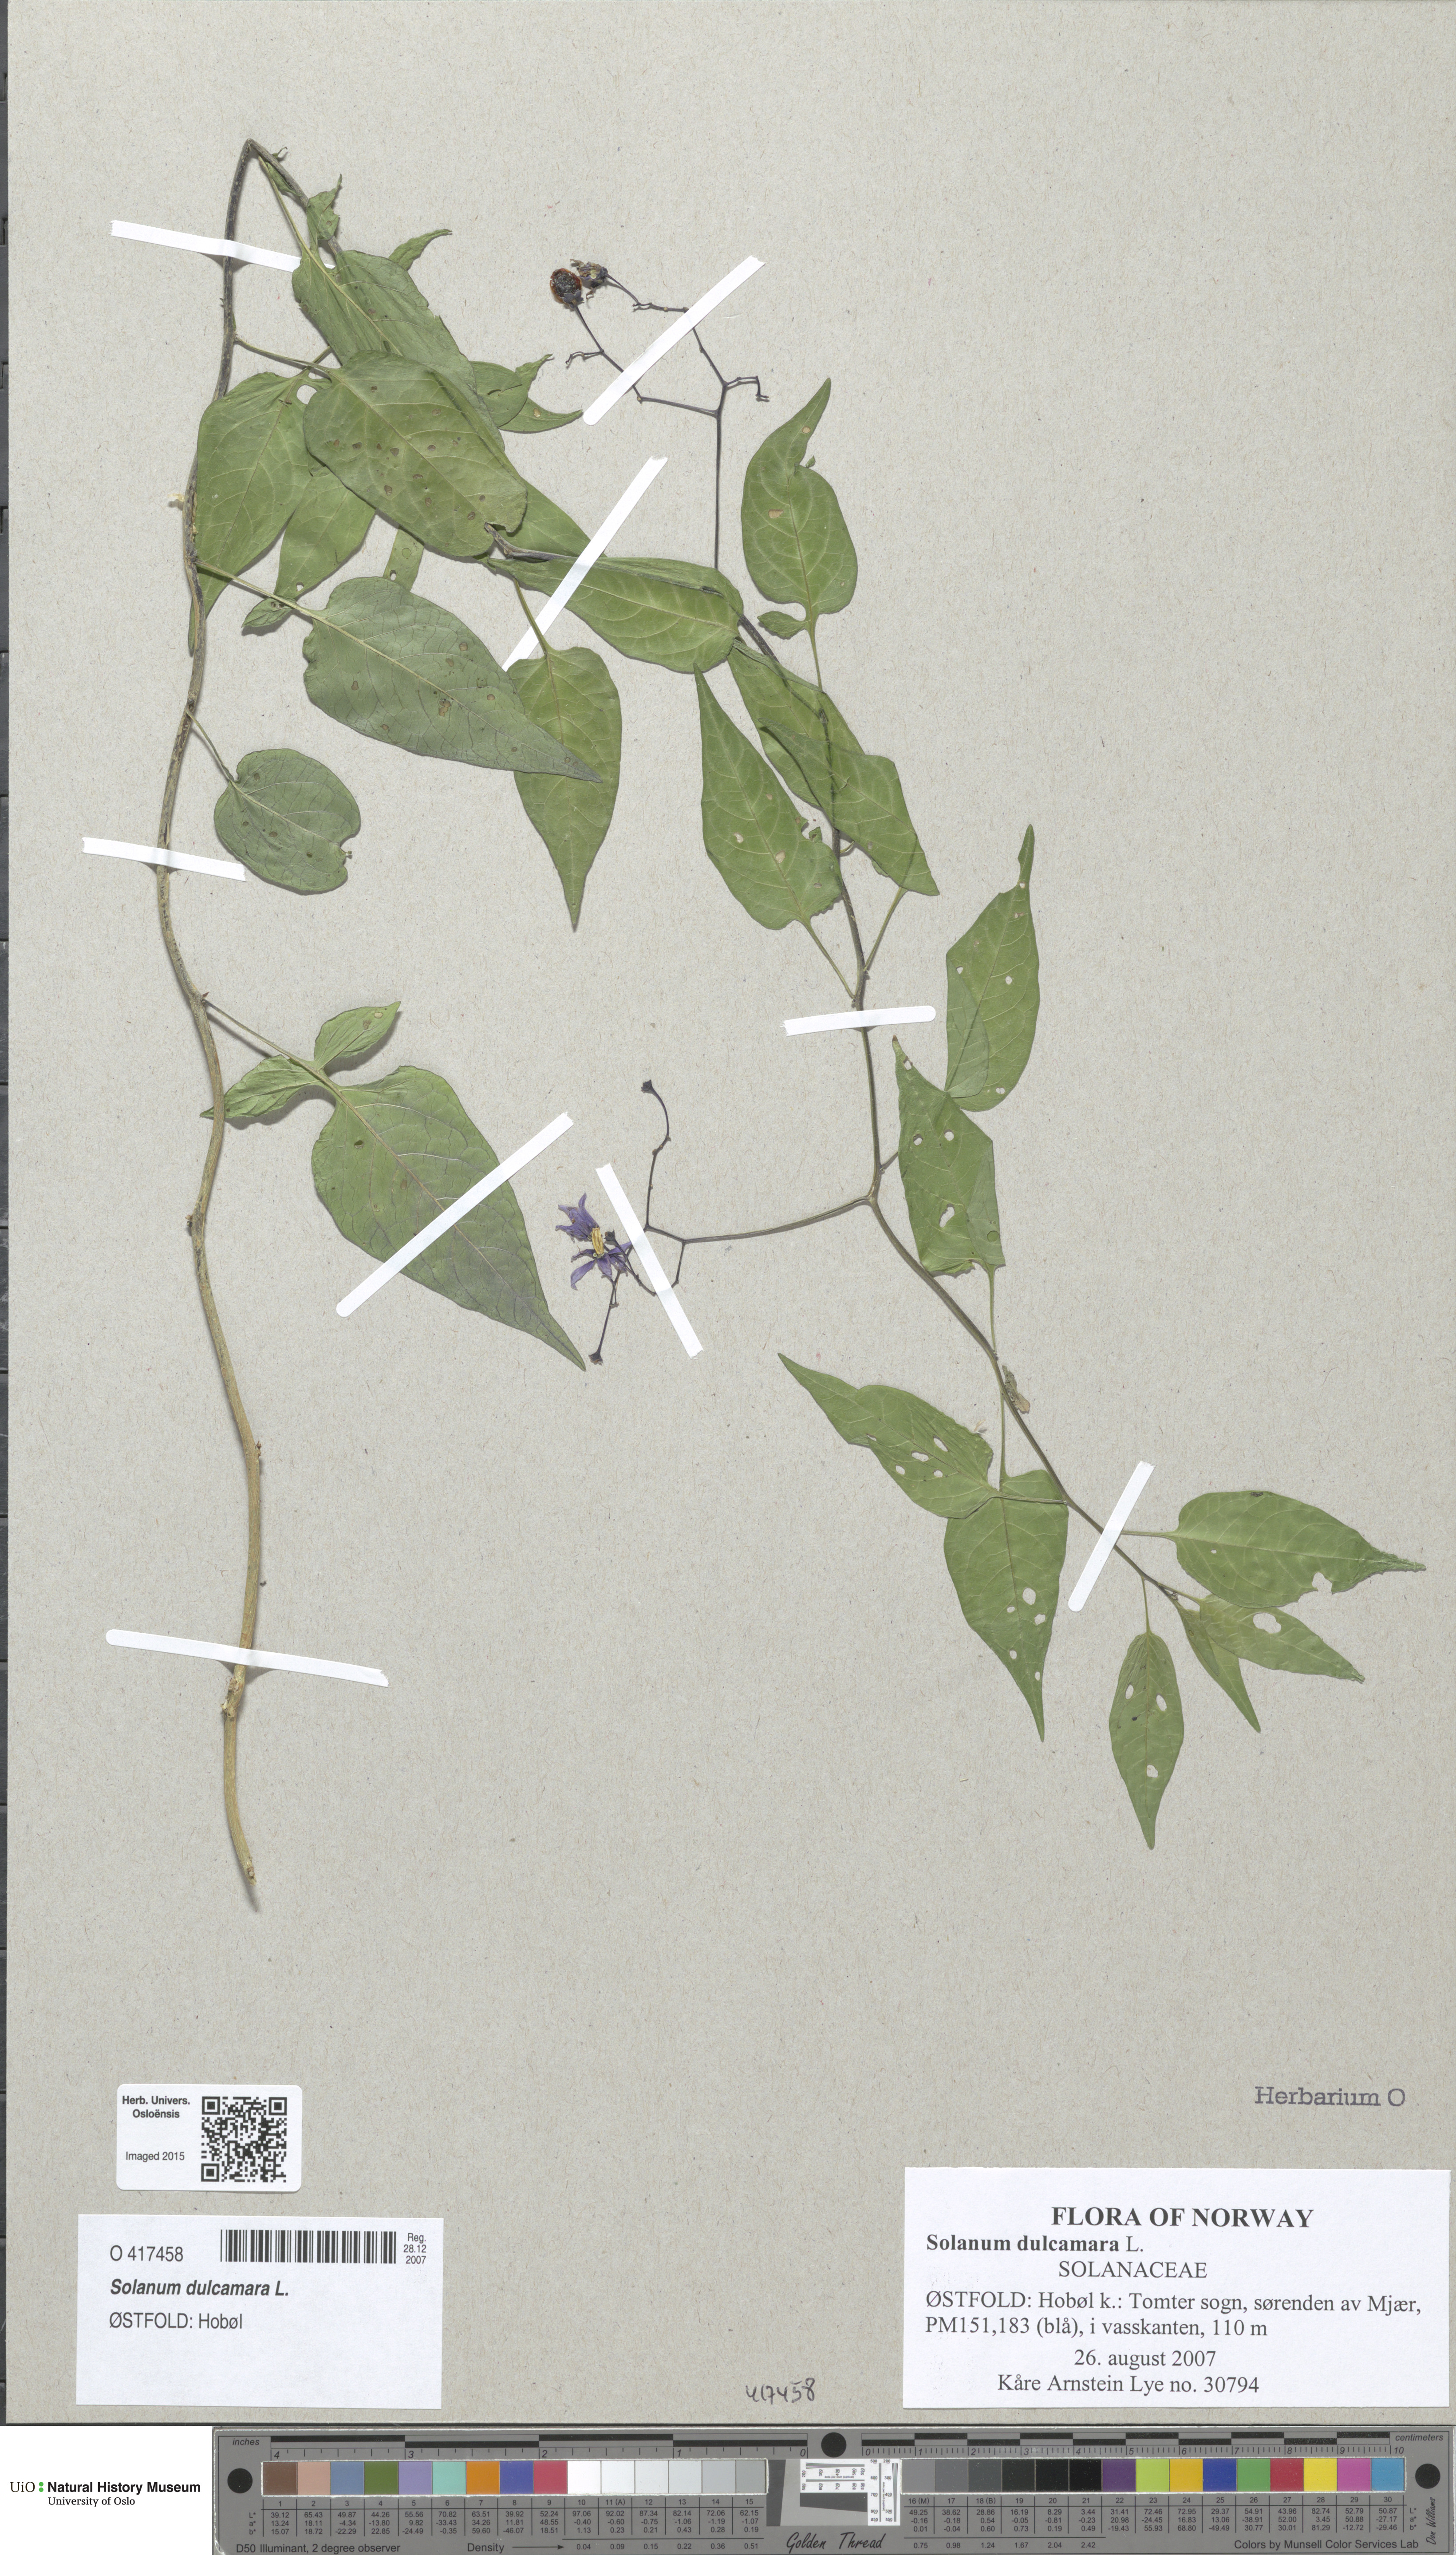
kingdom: Plantae
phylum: Tracheophyta
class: Magnoliopsida
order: Solanales
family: Solanaceae
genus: Solanum
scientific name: Solanum dulcamara
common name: Climbing nightshade
